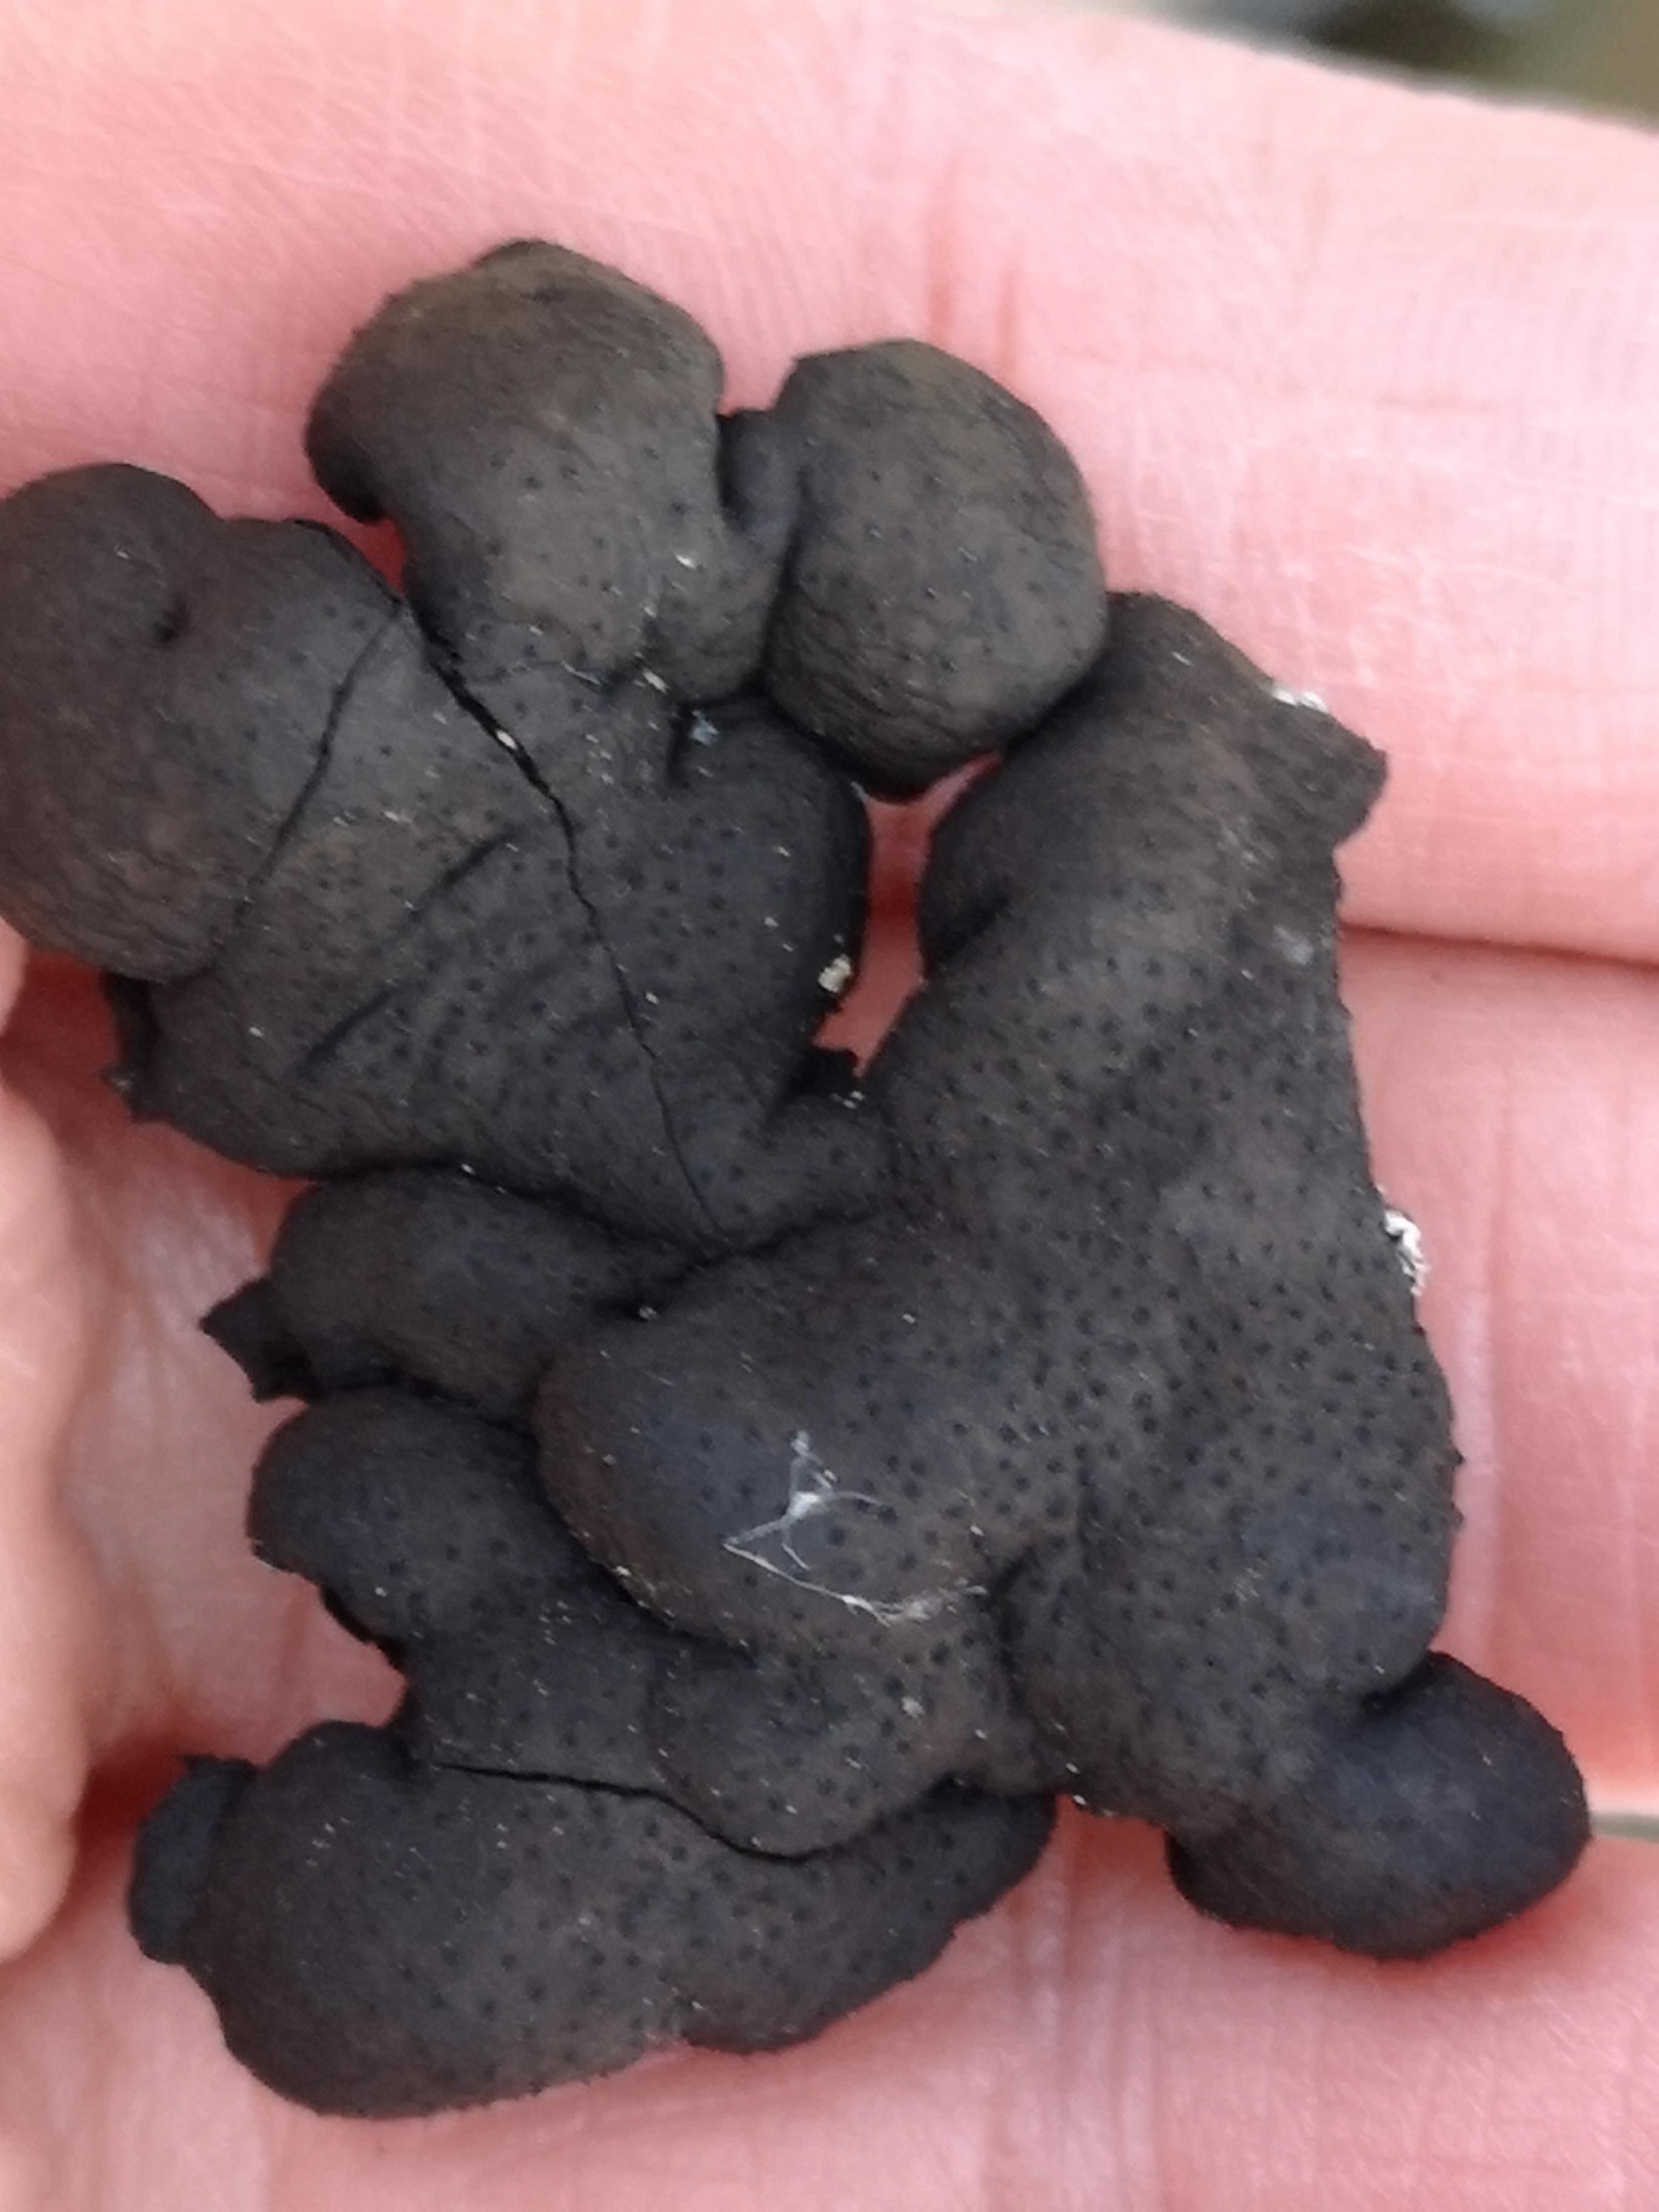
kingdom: Fungi
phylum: Ascomycota
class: Sordariomycetes
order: Xylariales
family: Xylariaceae
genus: Kretzschmaria
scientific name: Kretzschmaria deusta
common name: stor kulsvamp
